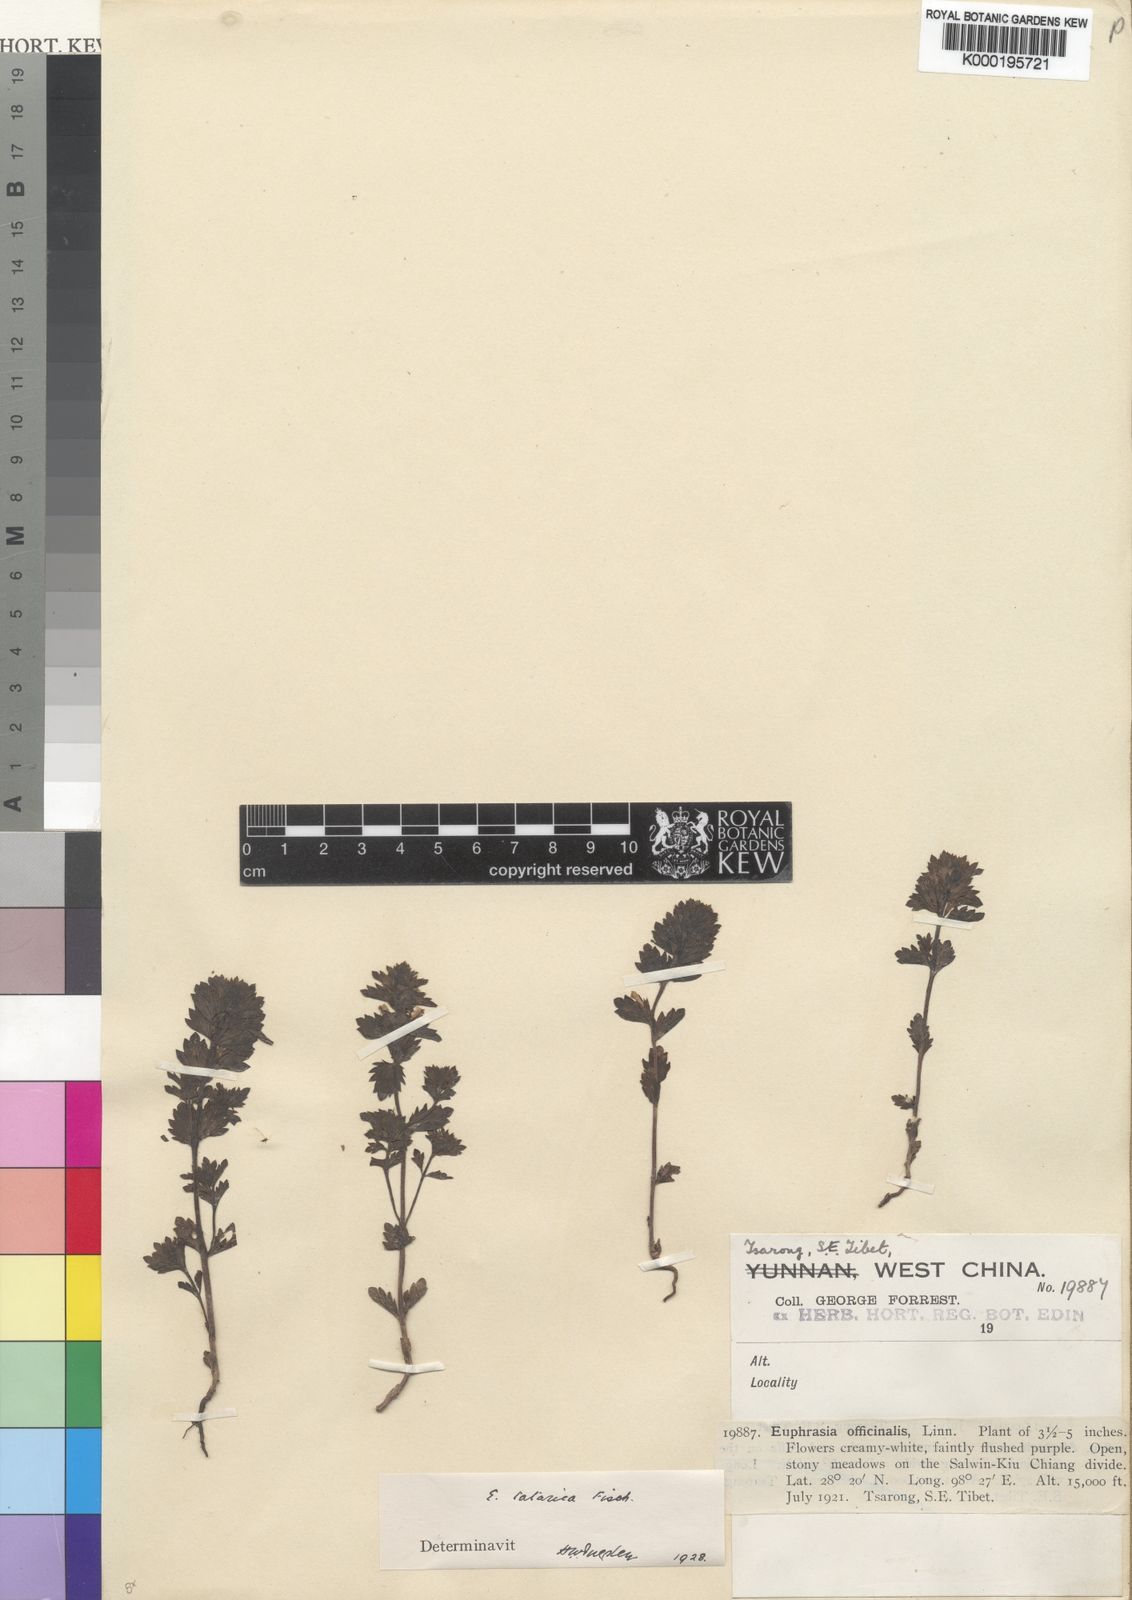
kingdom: Plantae
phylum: Tracheophyta
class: Magnoliopsida
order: Lamiales
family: Orobanchaceae
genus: Euphrasia
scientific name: Euphrasia
